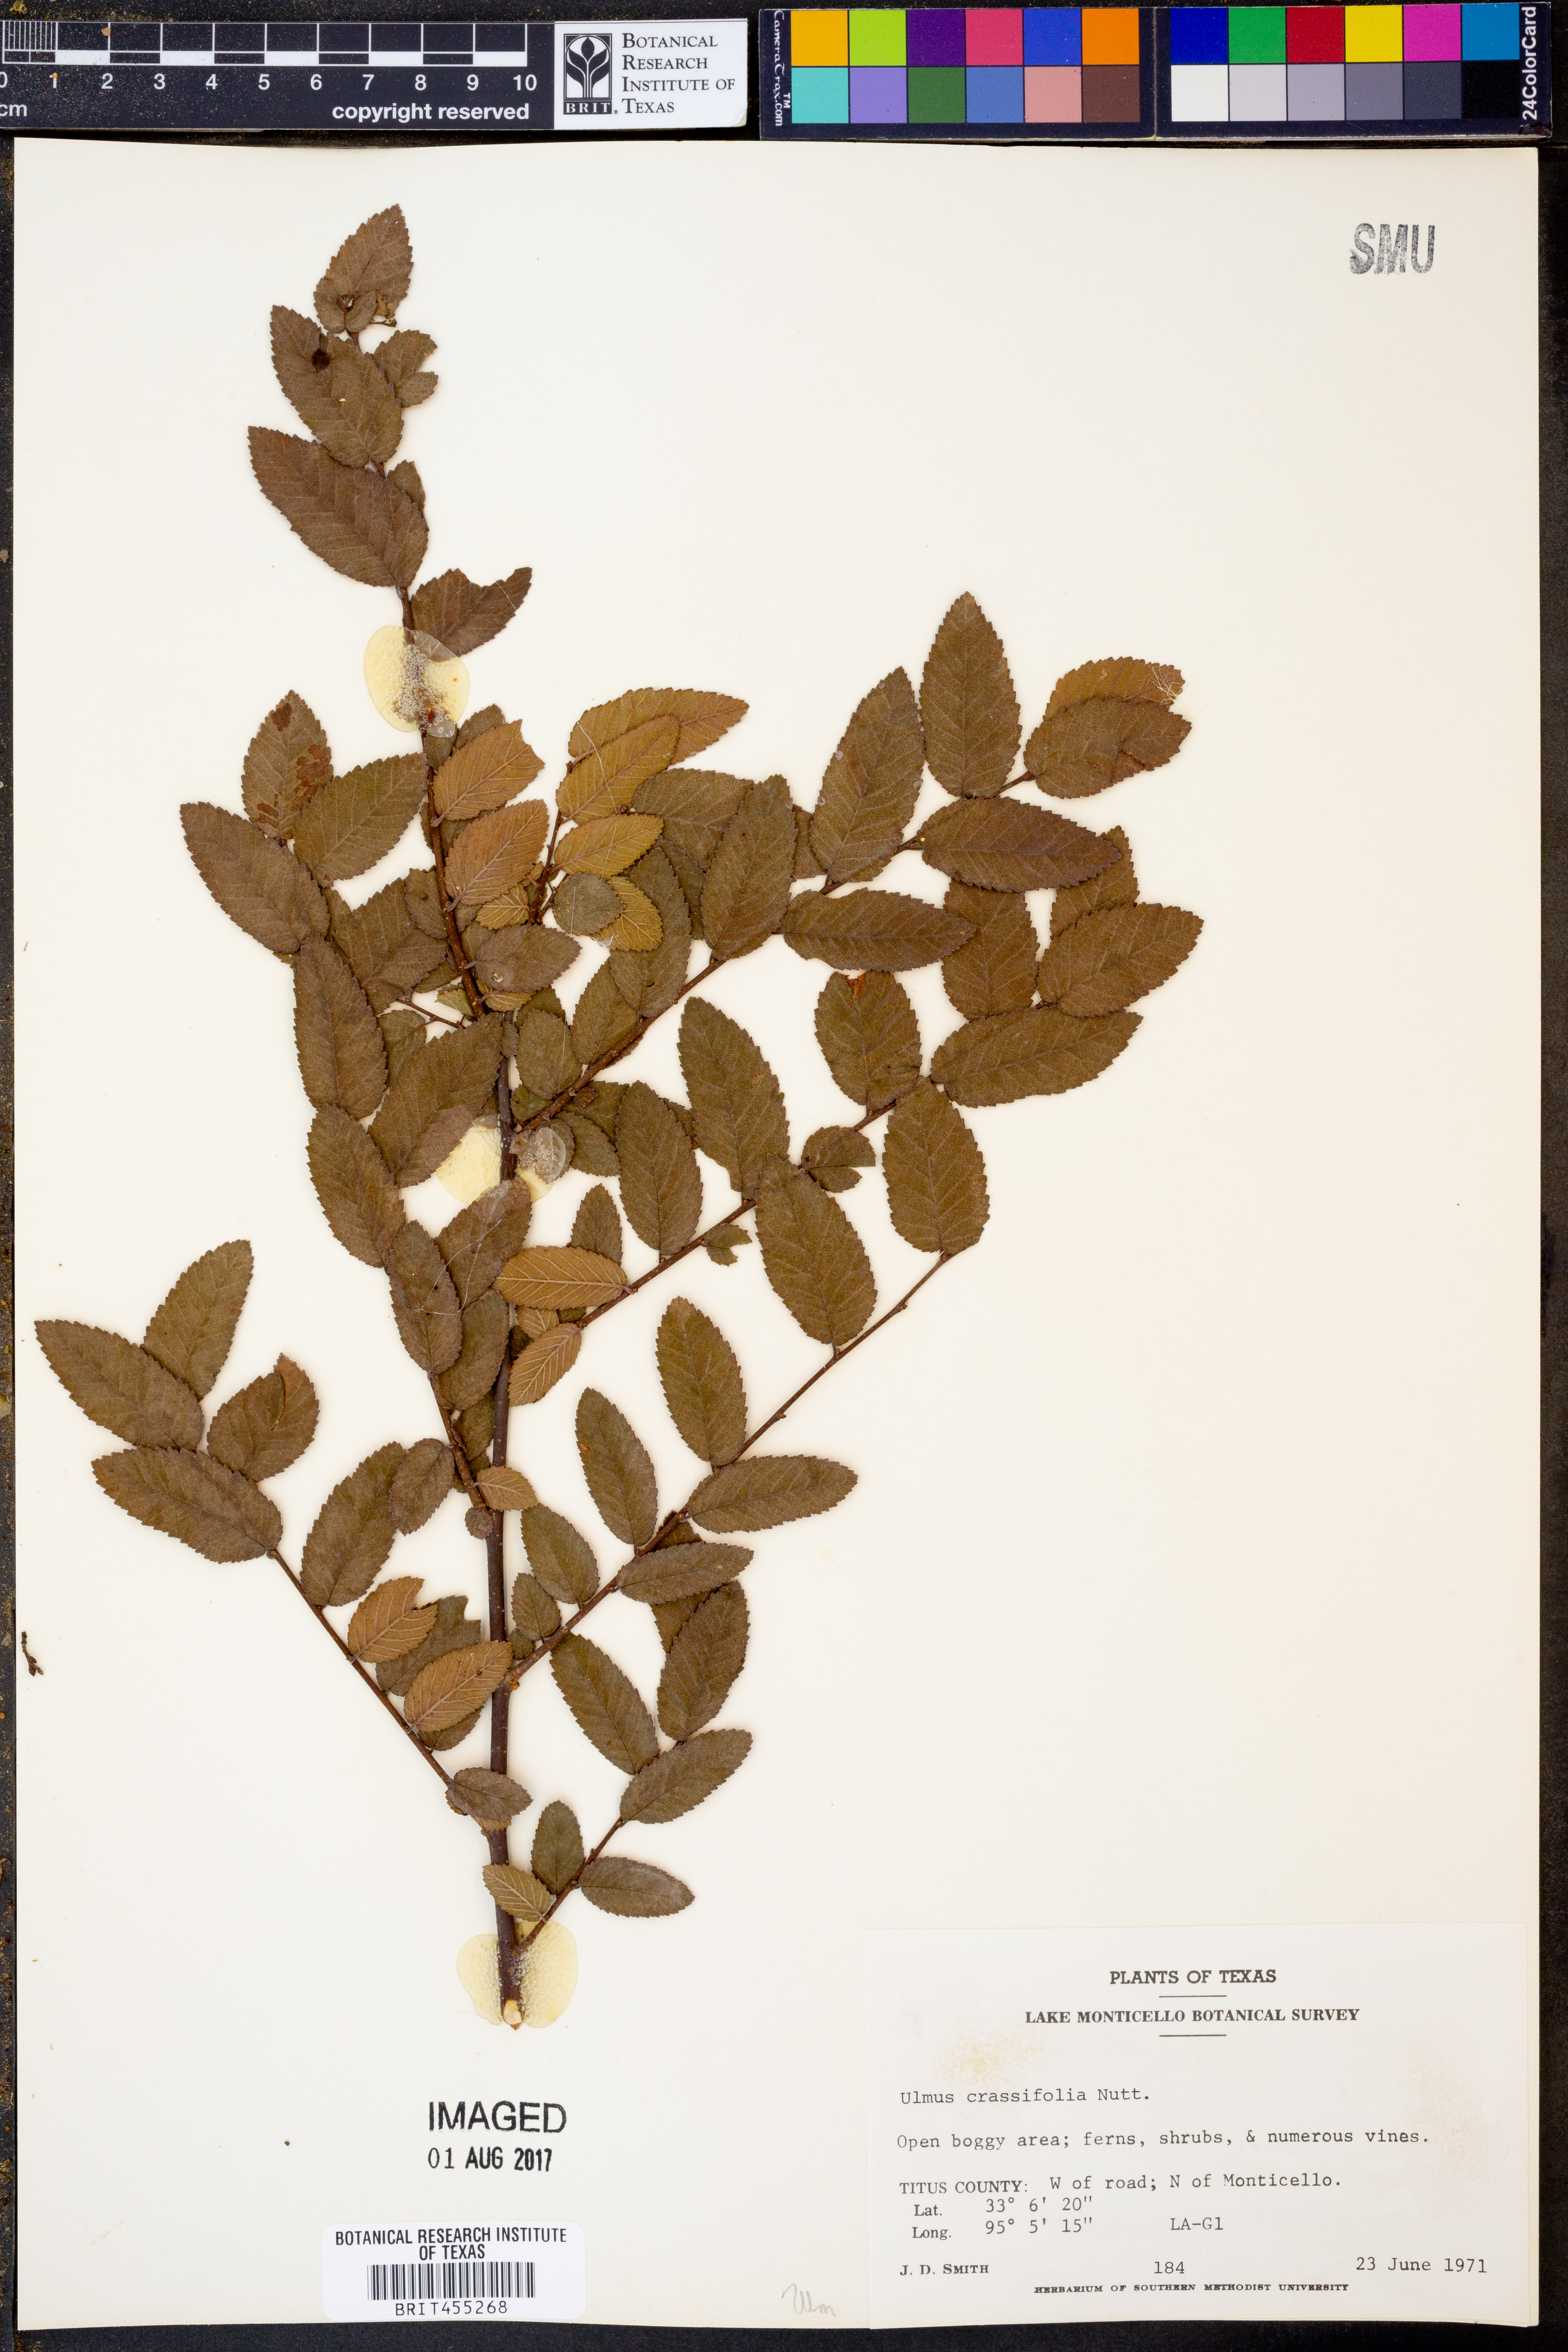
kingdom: Plantae
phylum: Tracheophyta
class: Magnoliopsida
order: Rosales
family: Ulmaceae
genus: Ulmus
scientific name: Ulmus crassifolia
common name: Basket elm
